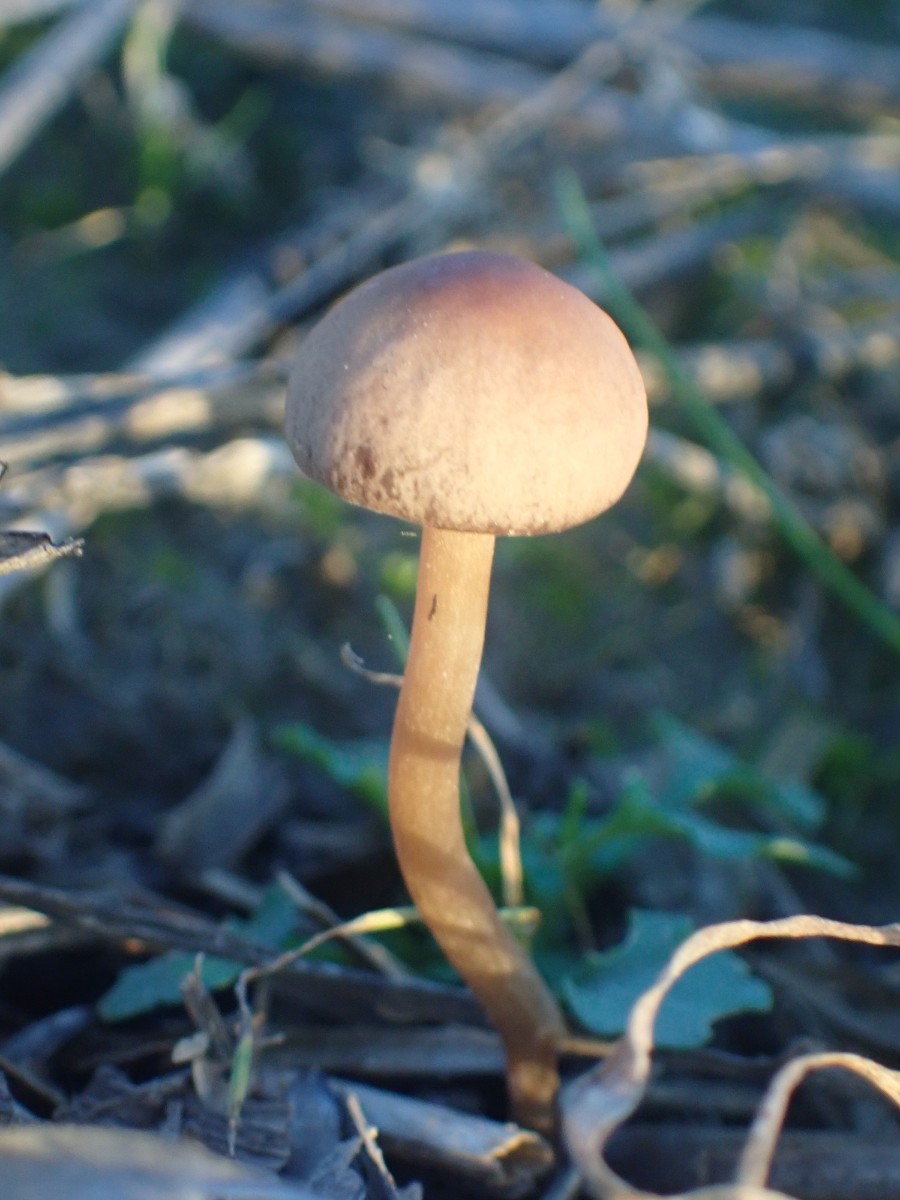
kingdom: Fungi
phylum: Basidiomycota
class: Agaricomycetes
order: Agaricales
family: Bolbitiaceae
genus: Panaeolina
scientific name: Panaeolina foenisecii
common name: høslætsvamp
